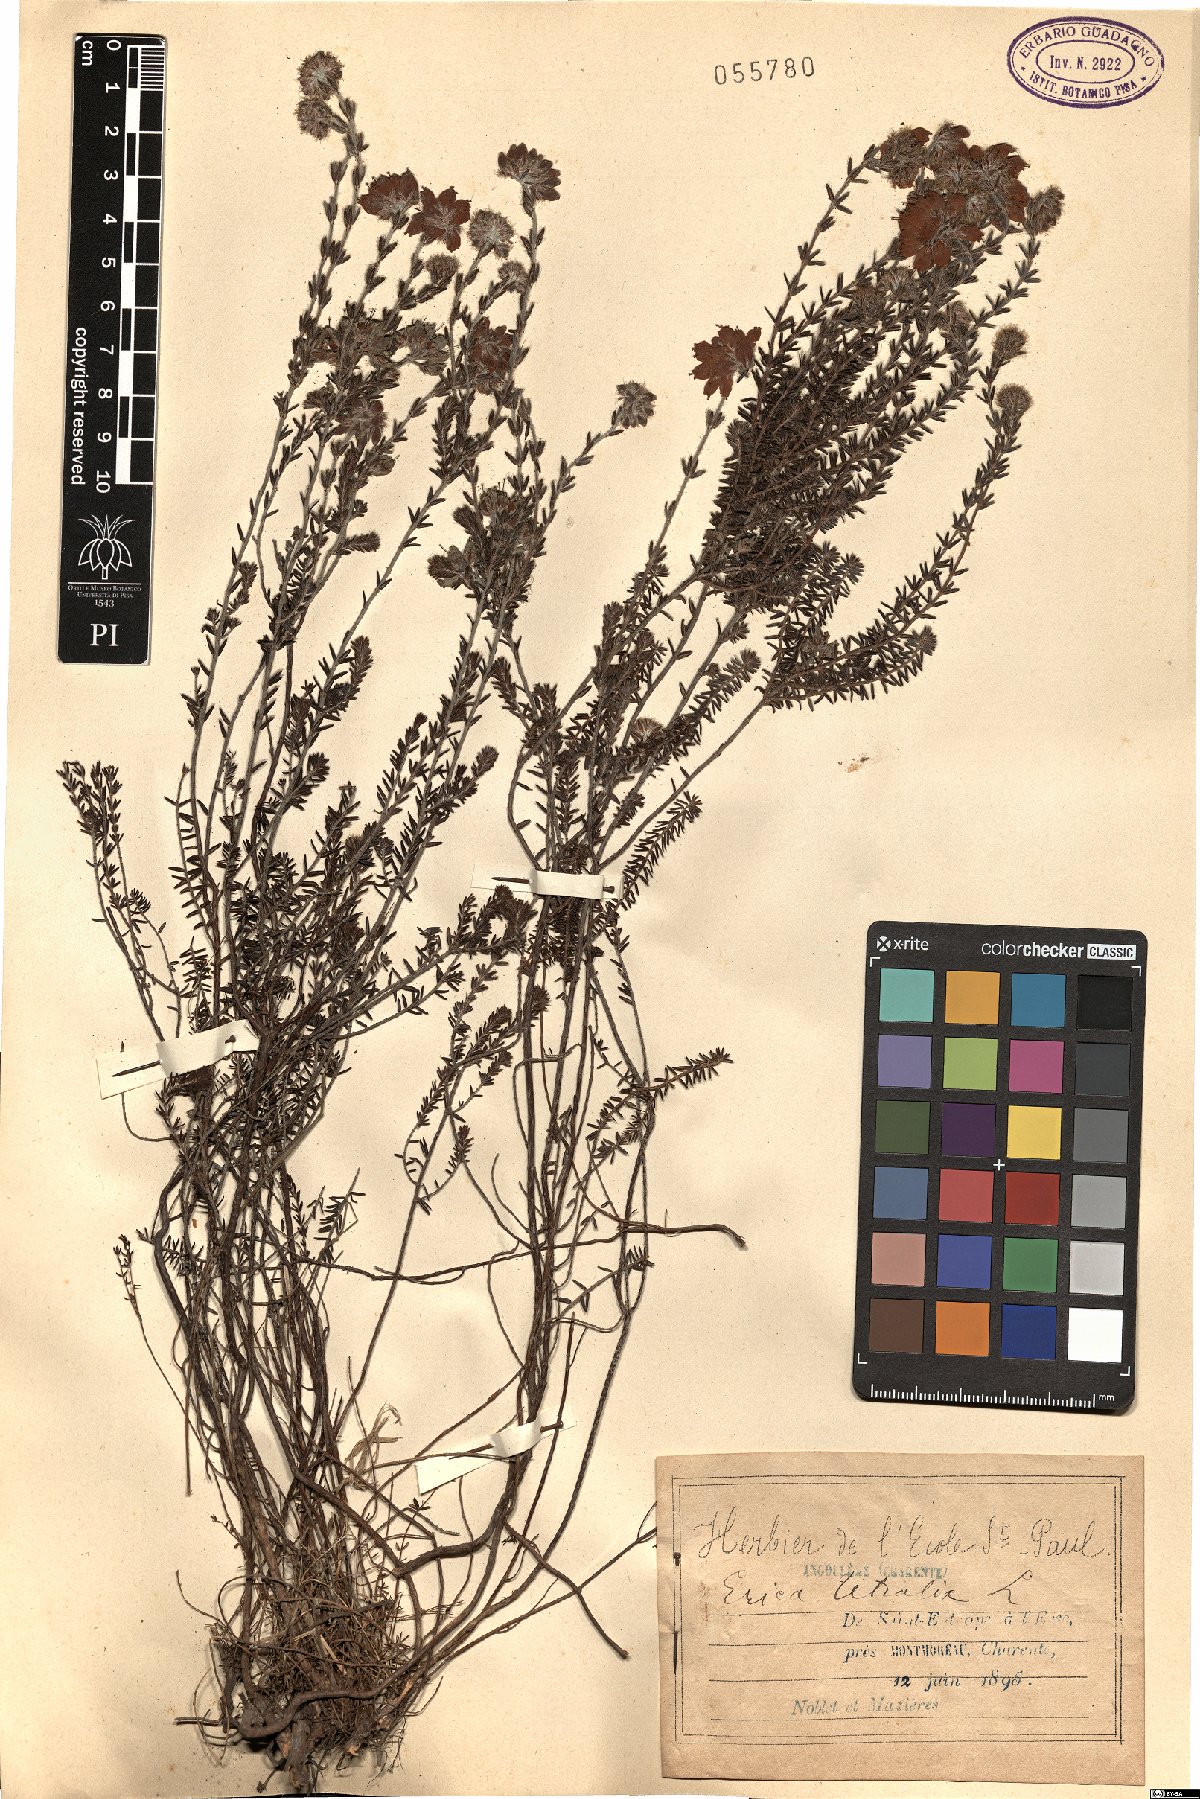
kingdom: Plantae
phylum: Tracheophyta
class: Magnoliopsida
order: Ericales
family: Ericaceae
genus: Erica
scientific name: Erica tetralix
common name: Cross-leaved heath
